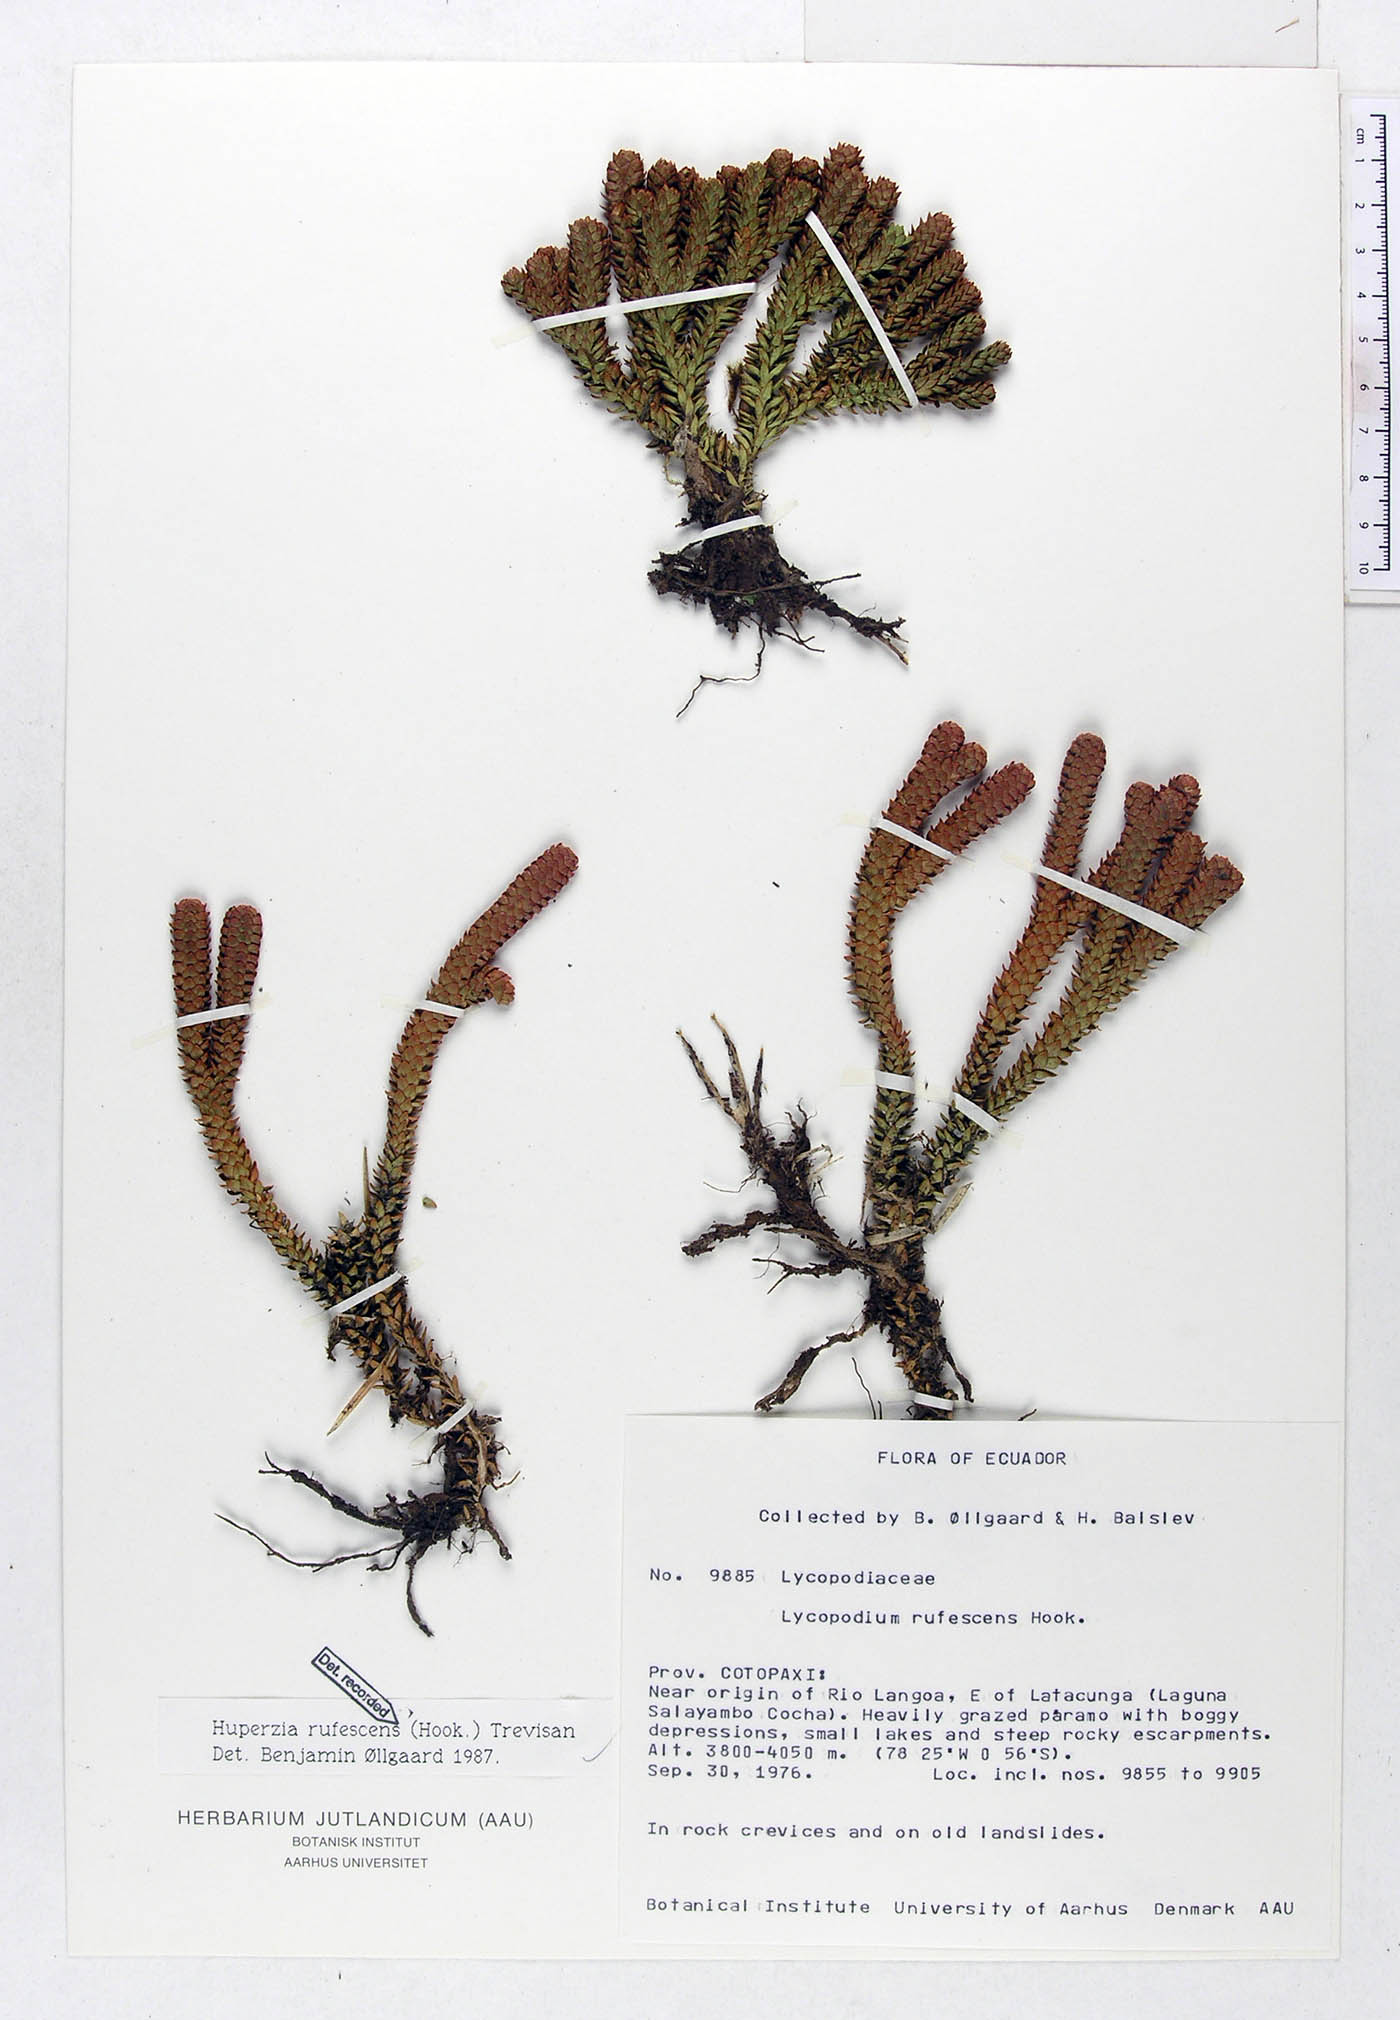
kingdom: Plantae
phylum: Tracheophyta
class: Lycopodiopsida
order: Lycopodiales
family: Lycopodiaceae
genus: Phlegmariurus
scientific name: Phlegmariurus rufescens
